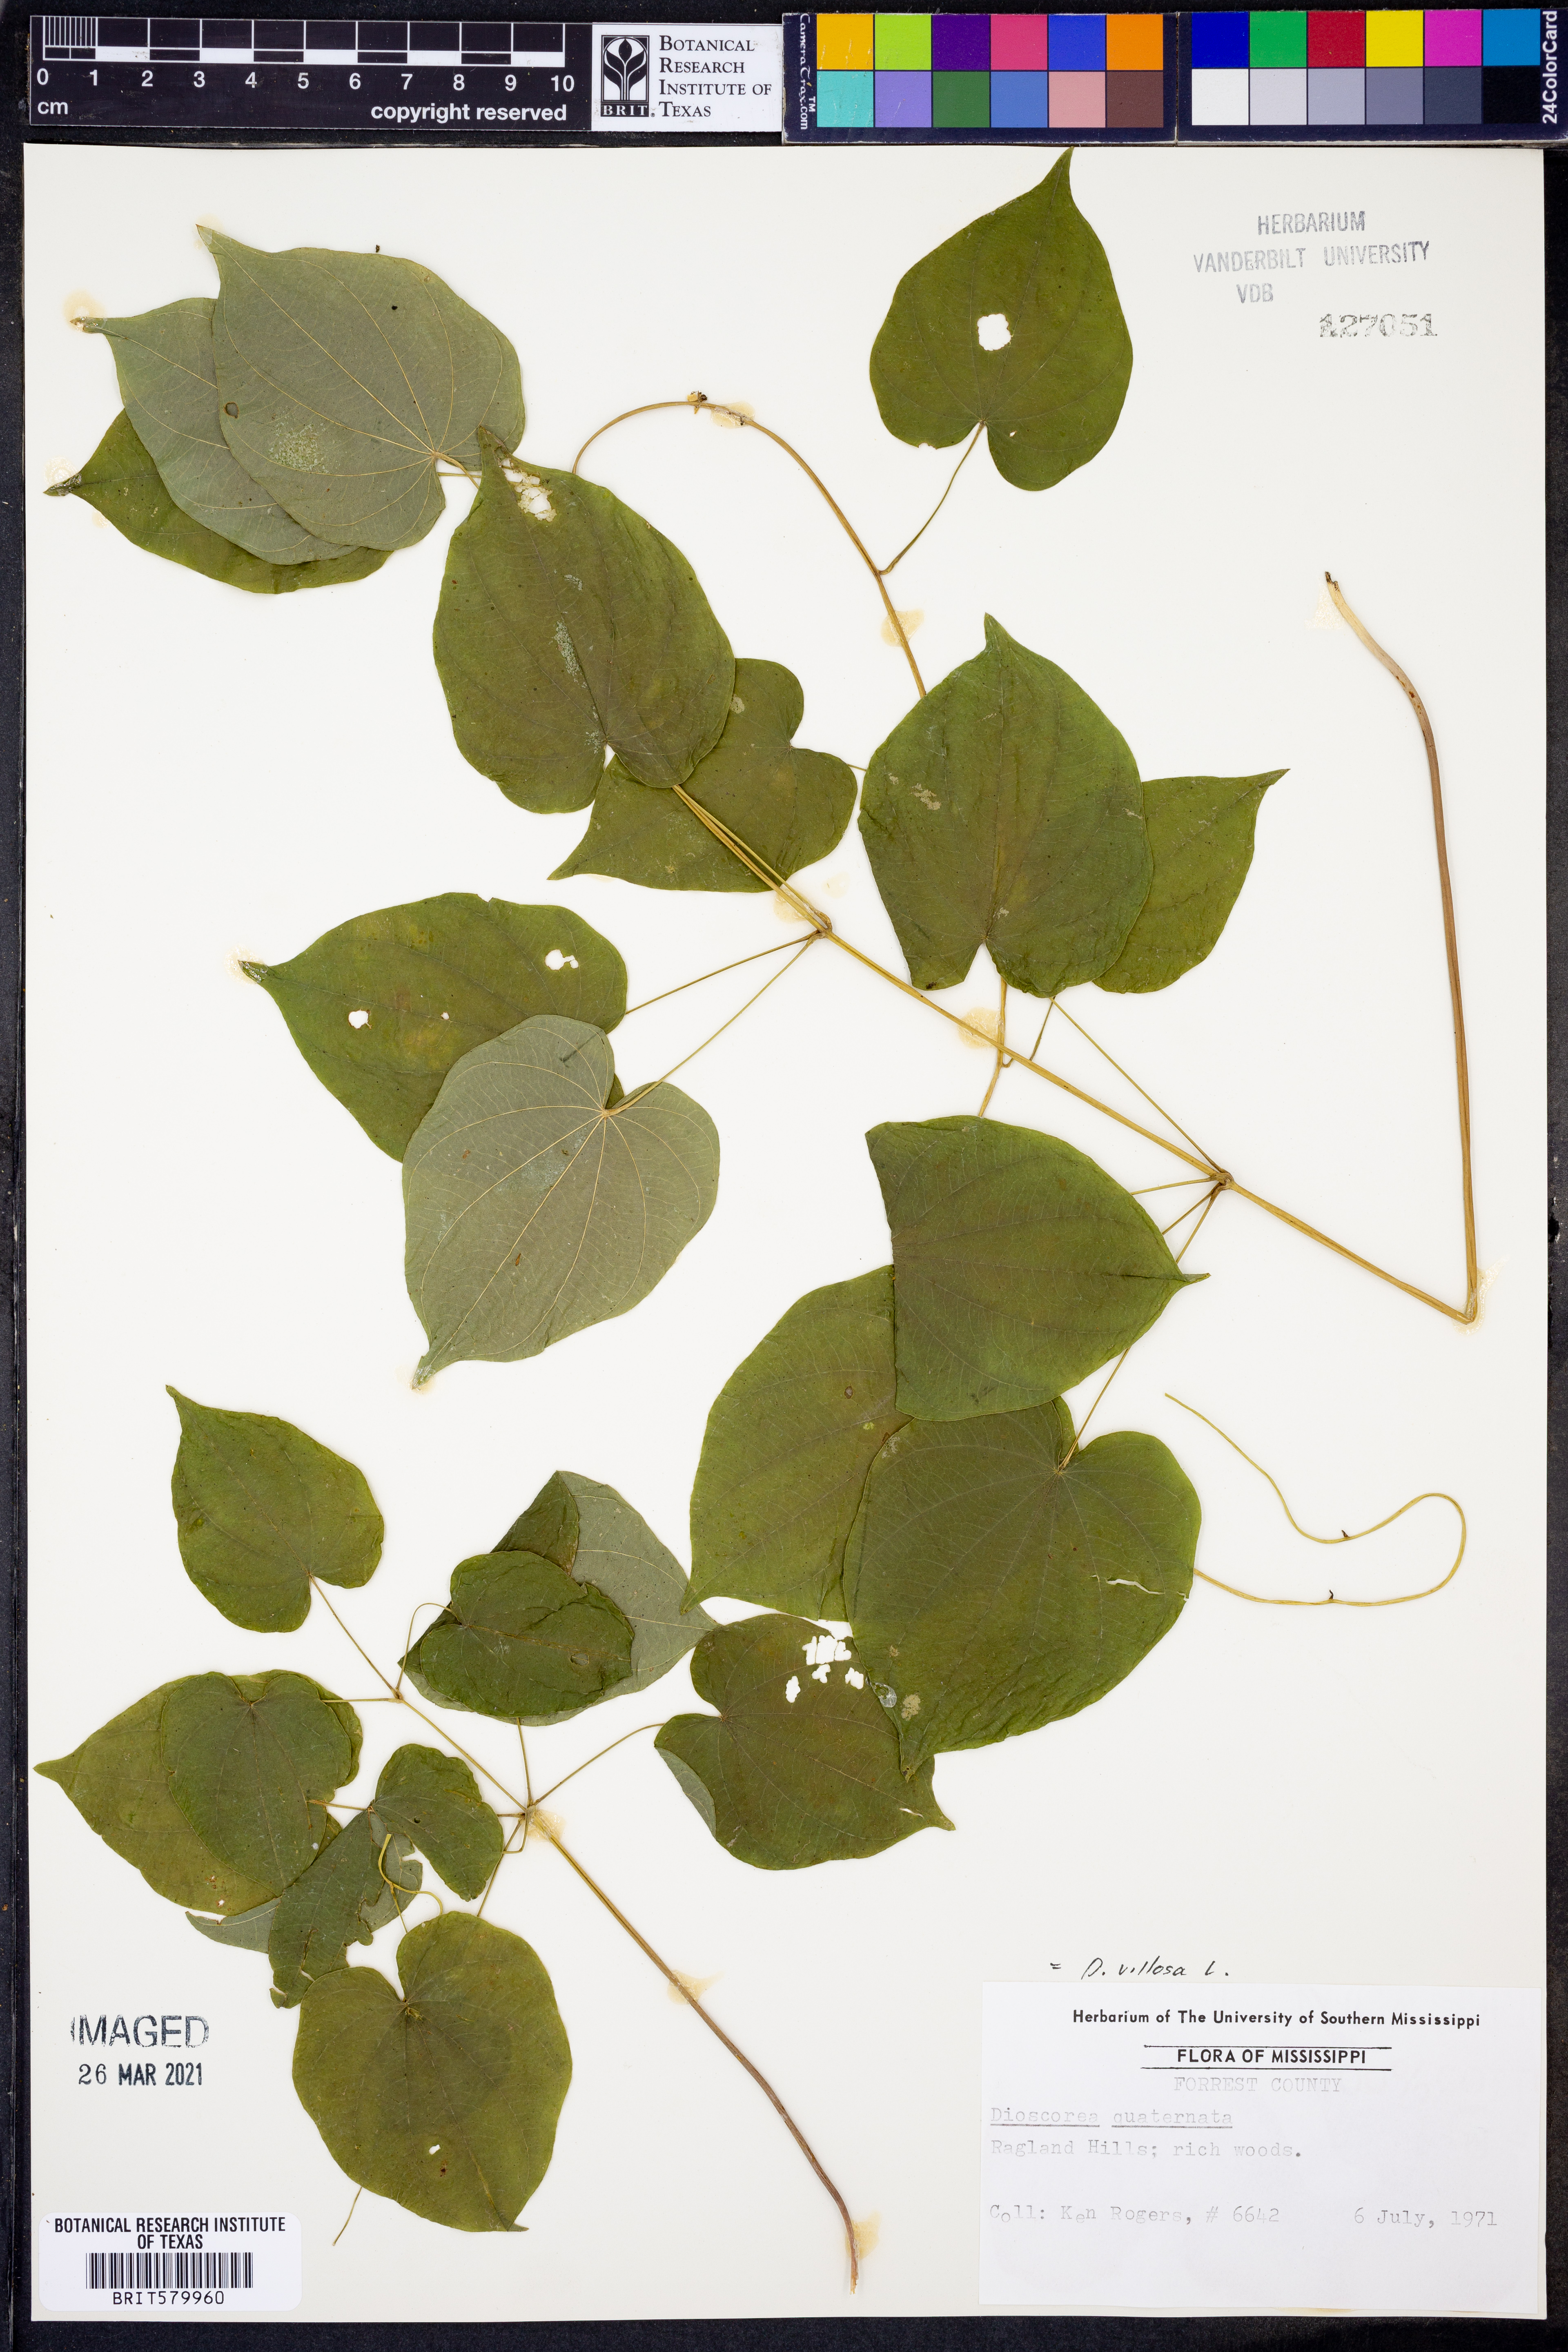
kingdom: Plantae
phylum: Tracheophyta
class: Liliopsida
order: Dioscoreales
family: Dioscoreaceae
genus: Dioscorea
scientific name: Dioscorea quaternata
